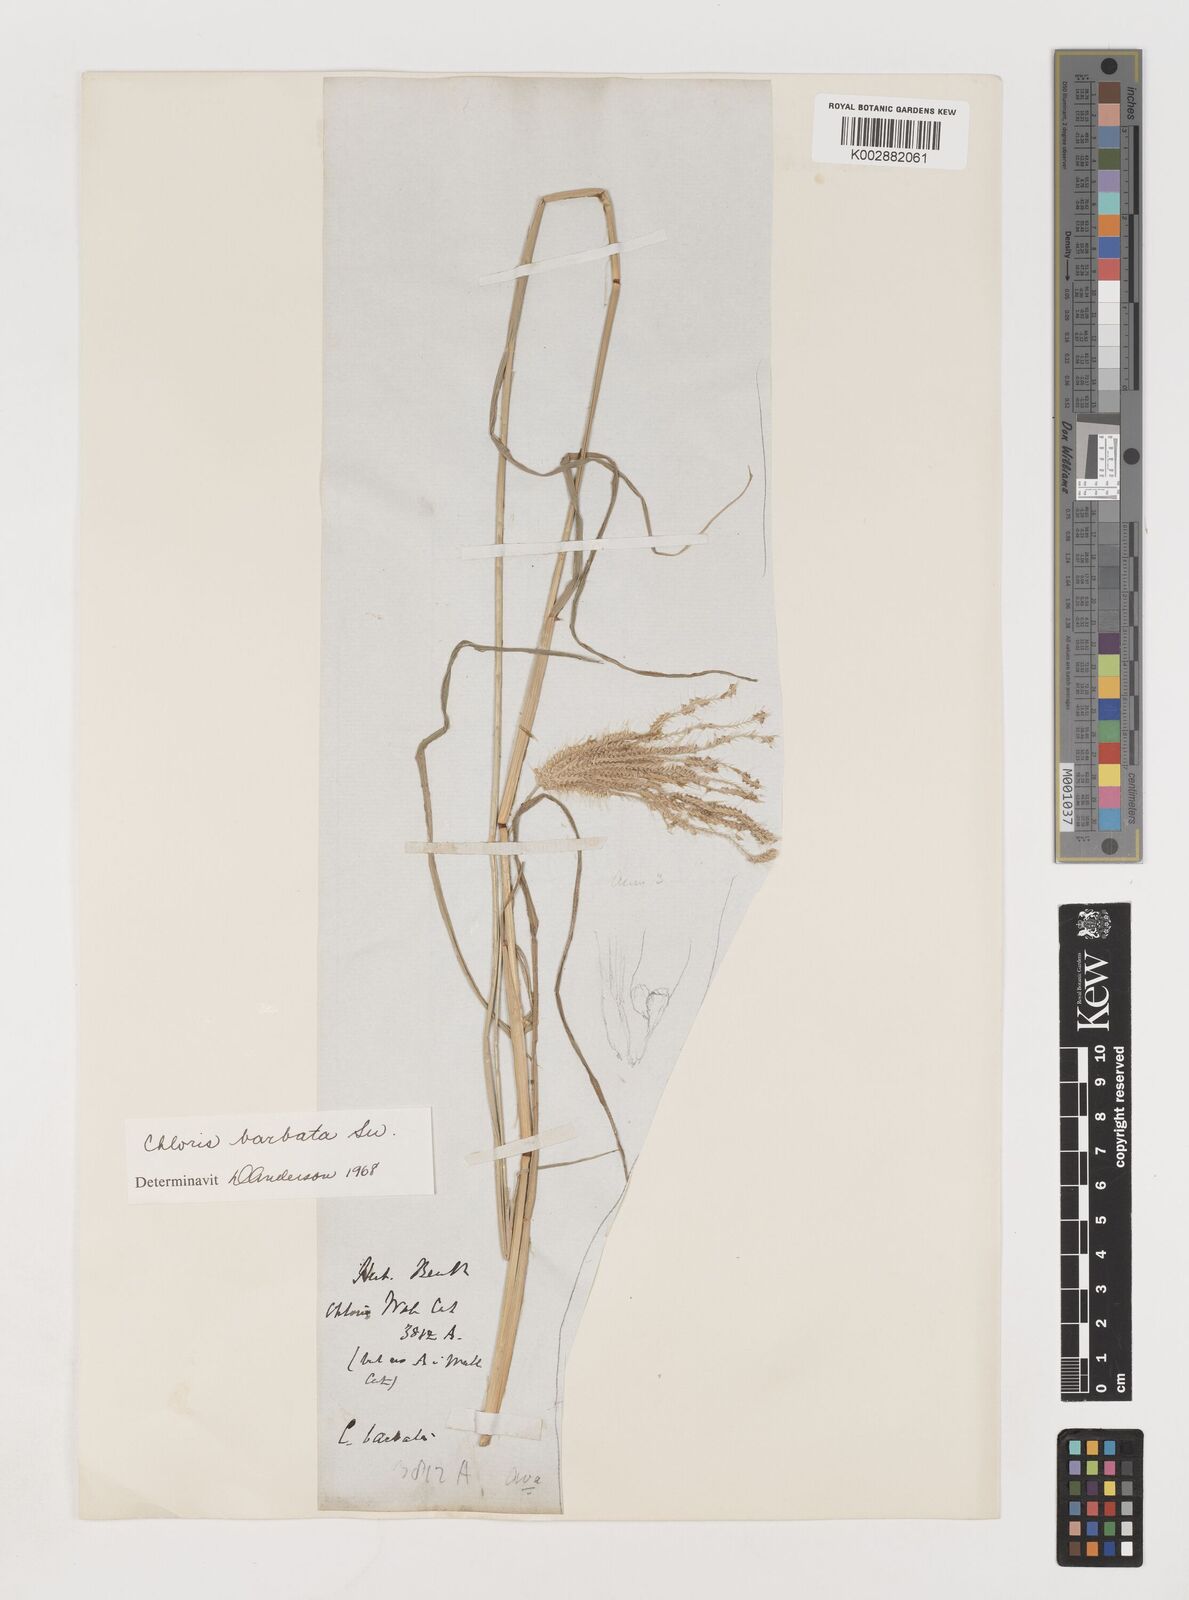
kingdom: Plantae
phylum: Tracheophyta
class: Liliopsida
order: Poales
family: Poaceae
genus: Chloris
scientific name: Chloris barbata
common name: Swollen fingergrass
